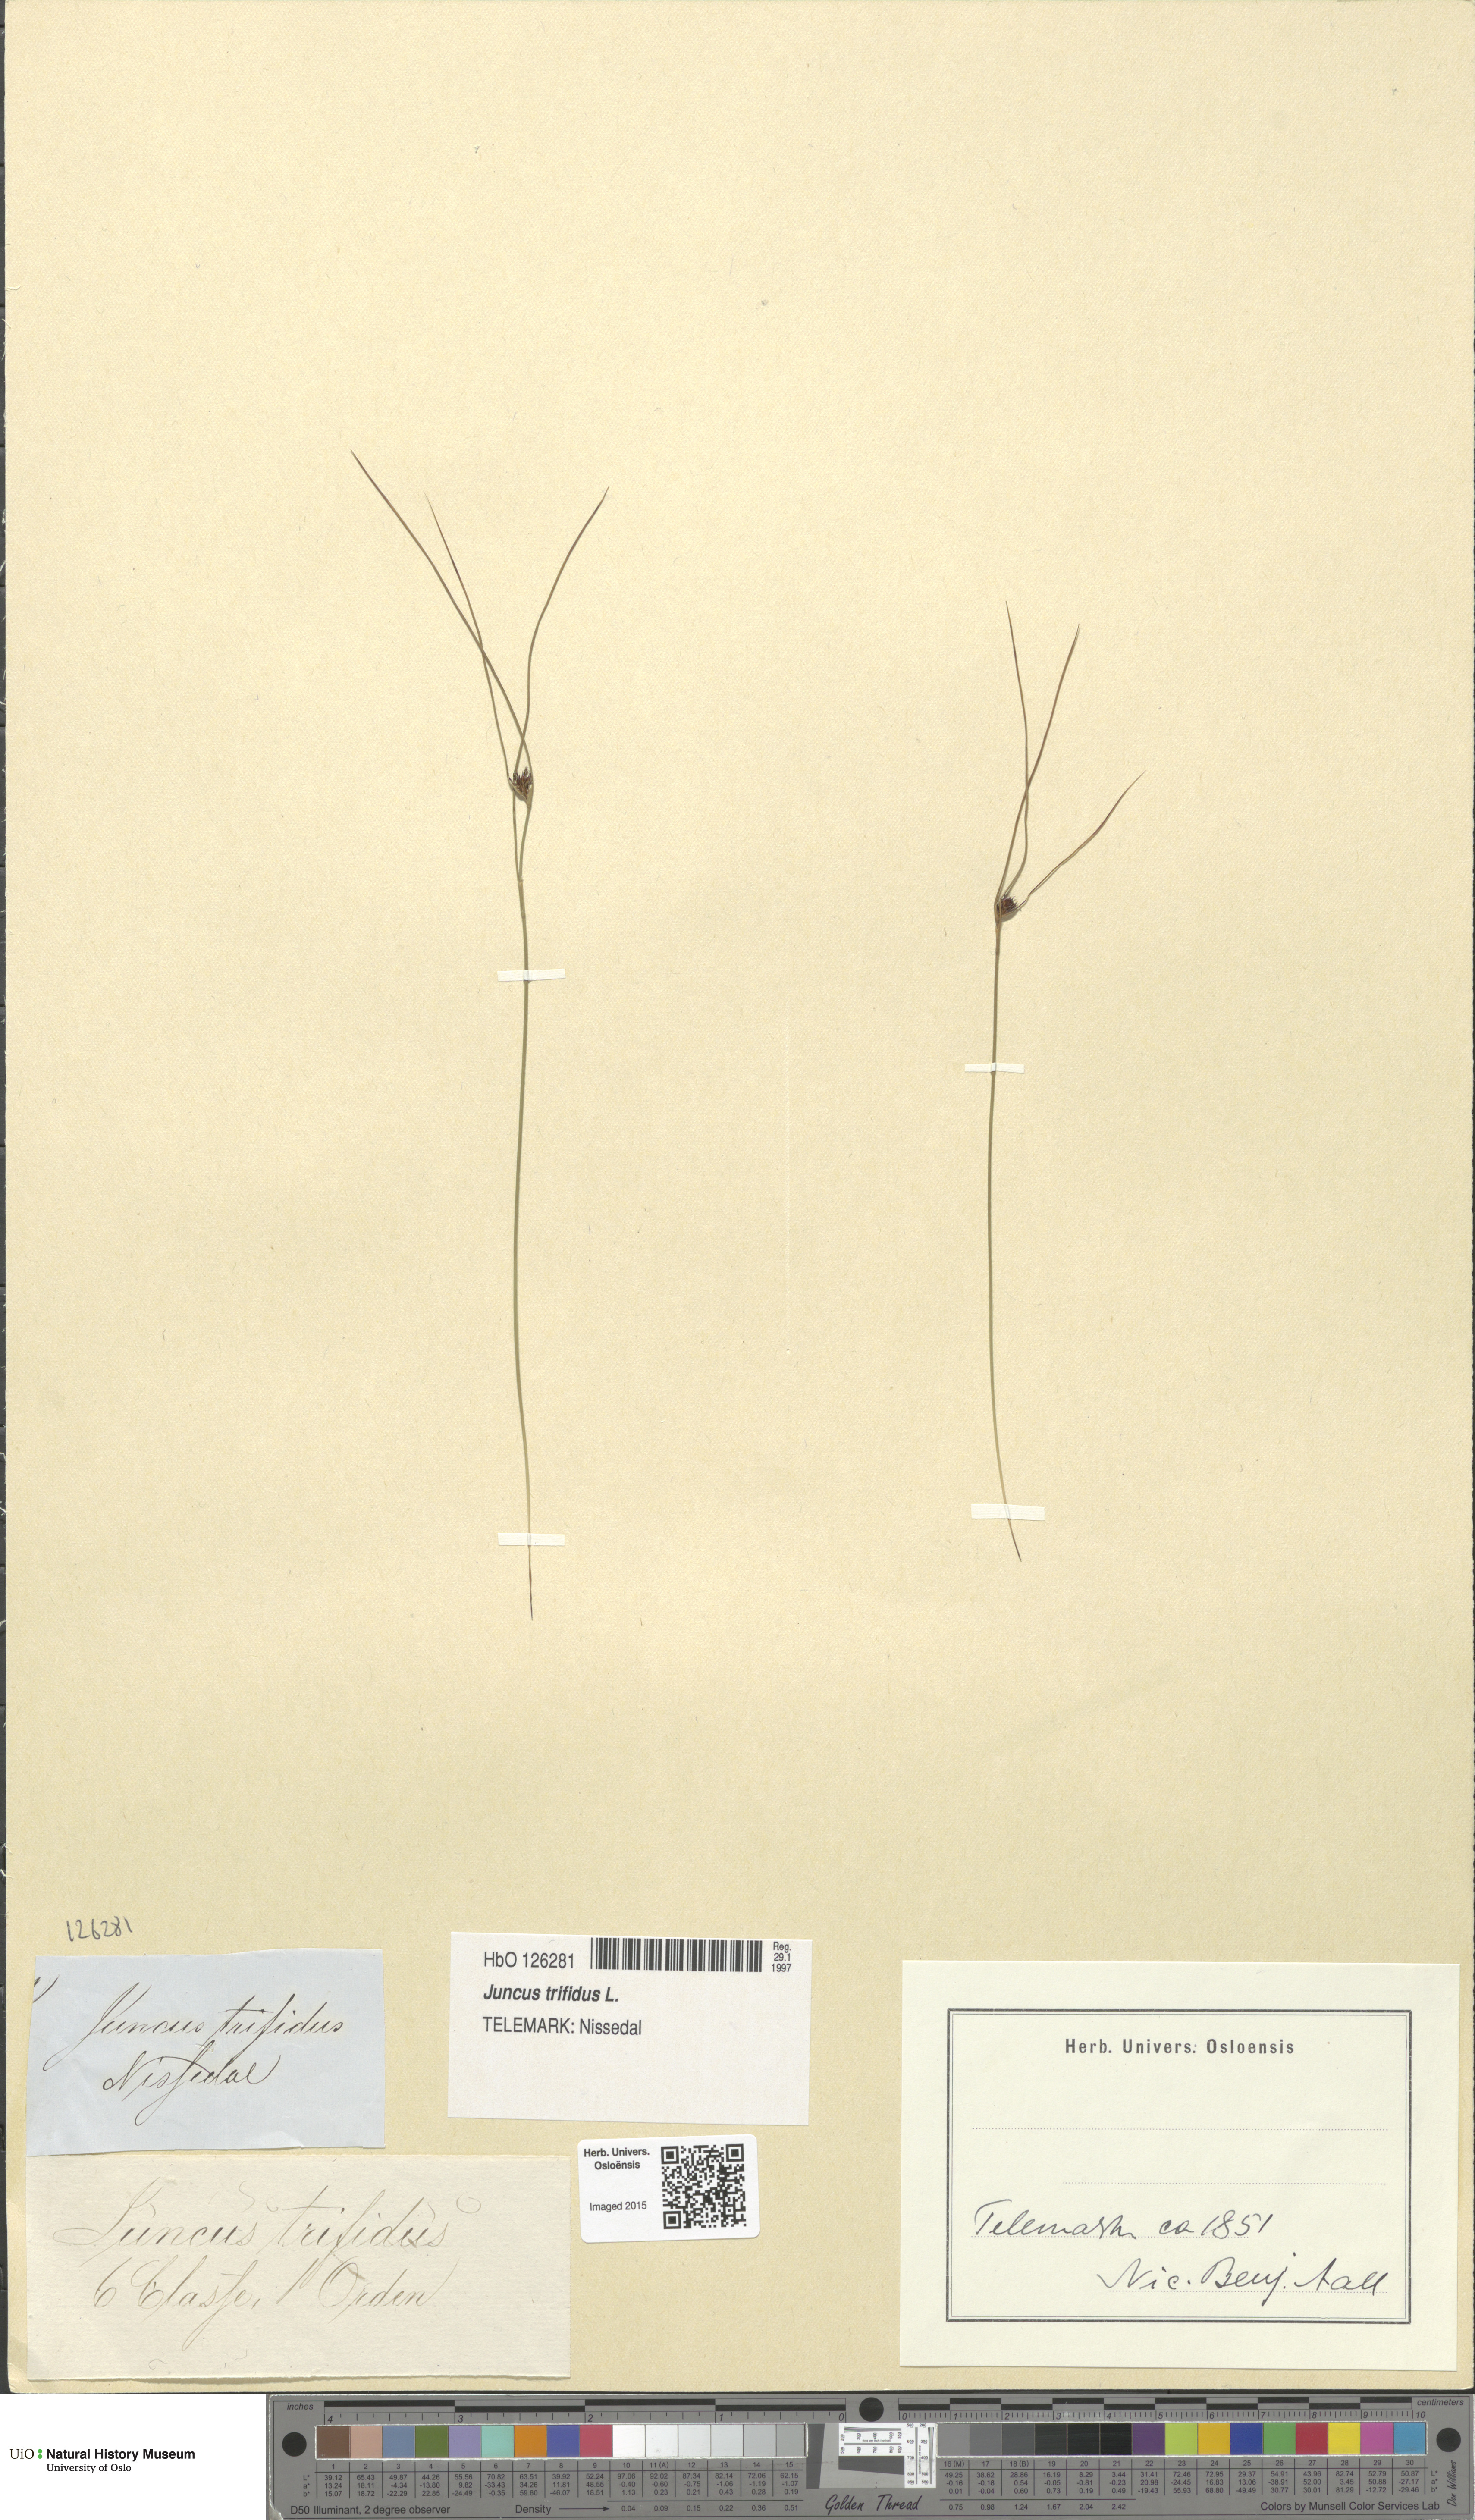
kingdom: Plantae
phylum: Tracheophyta
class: Liliopsida
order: Poales
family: Juncaceae
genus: Oreojuncus
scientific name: Oreojuncus trifidus
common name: Highland rush
